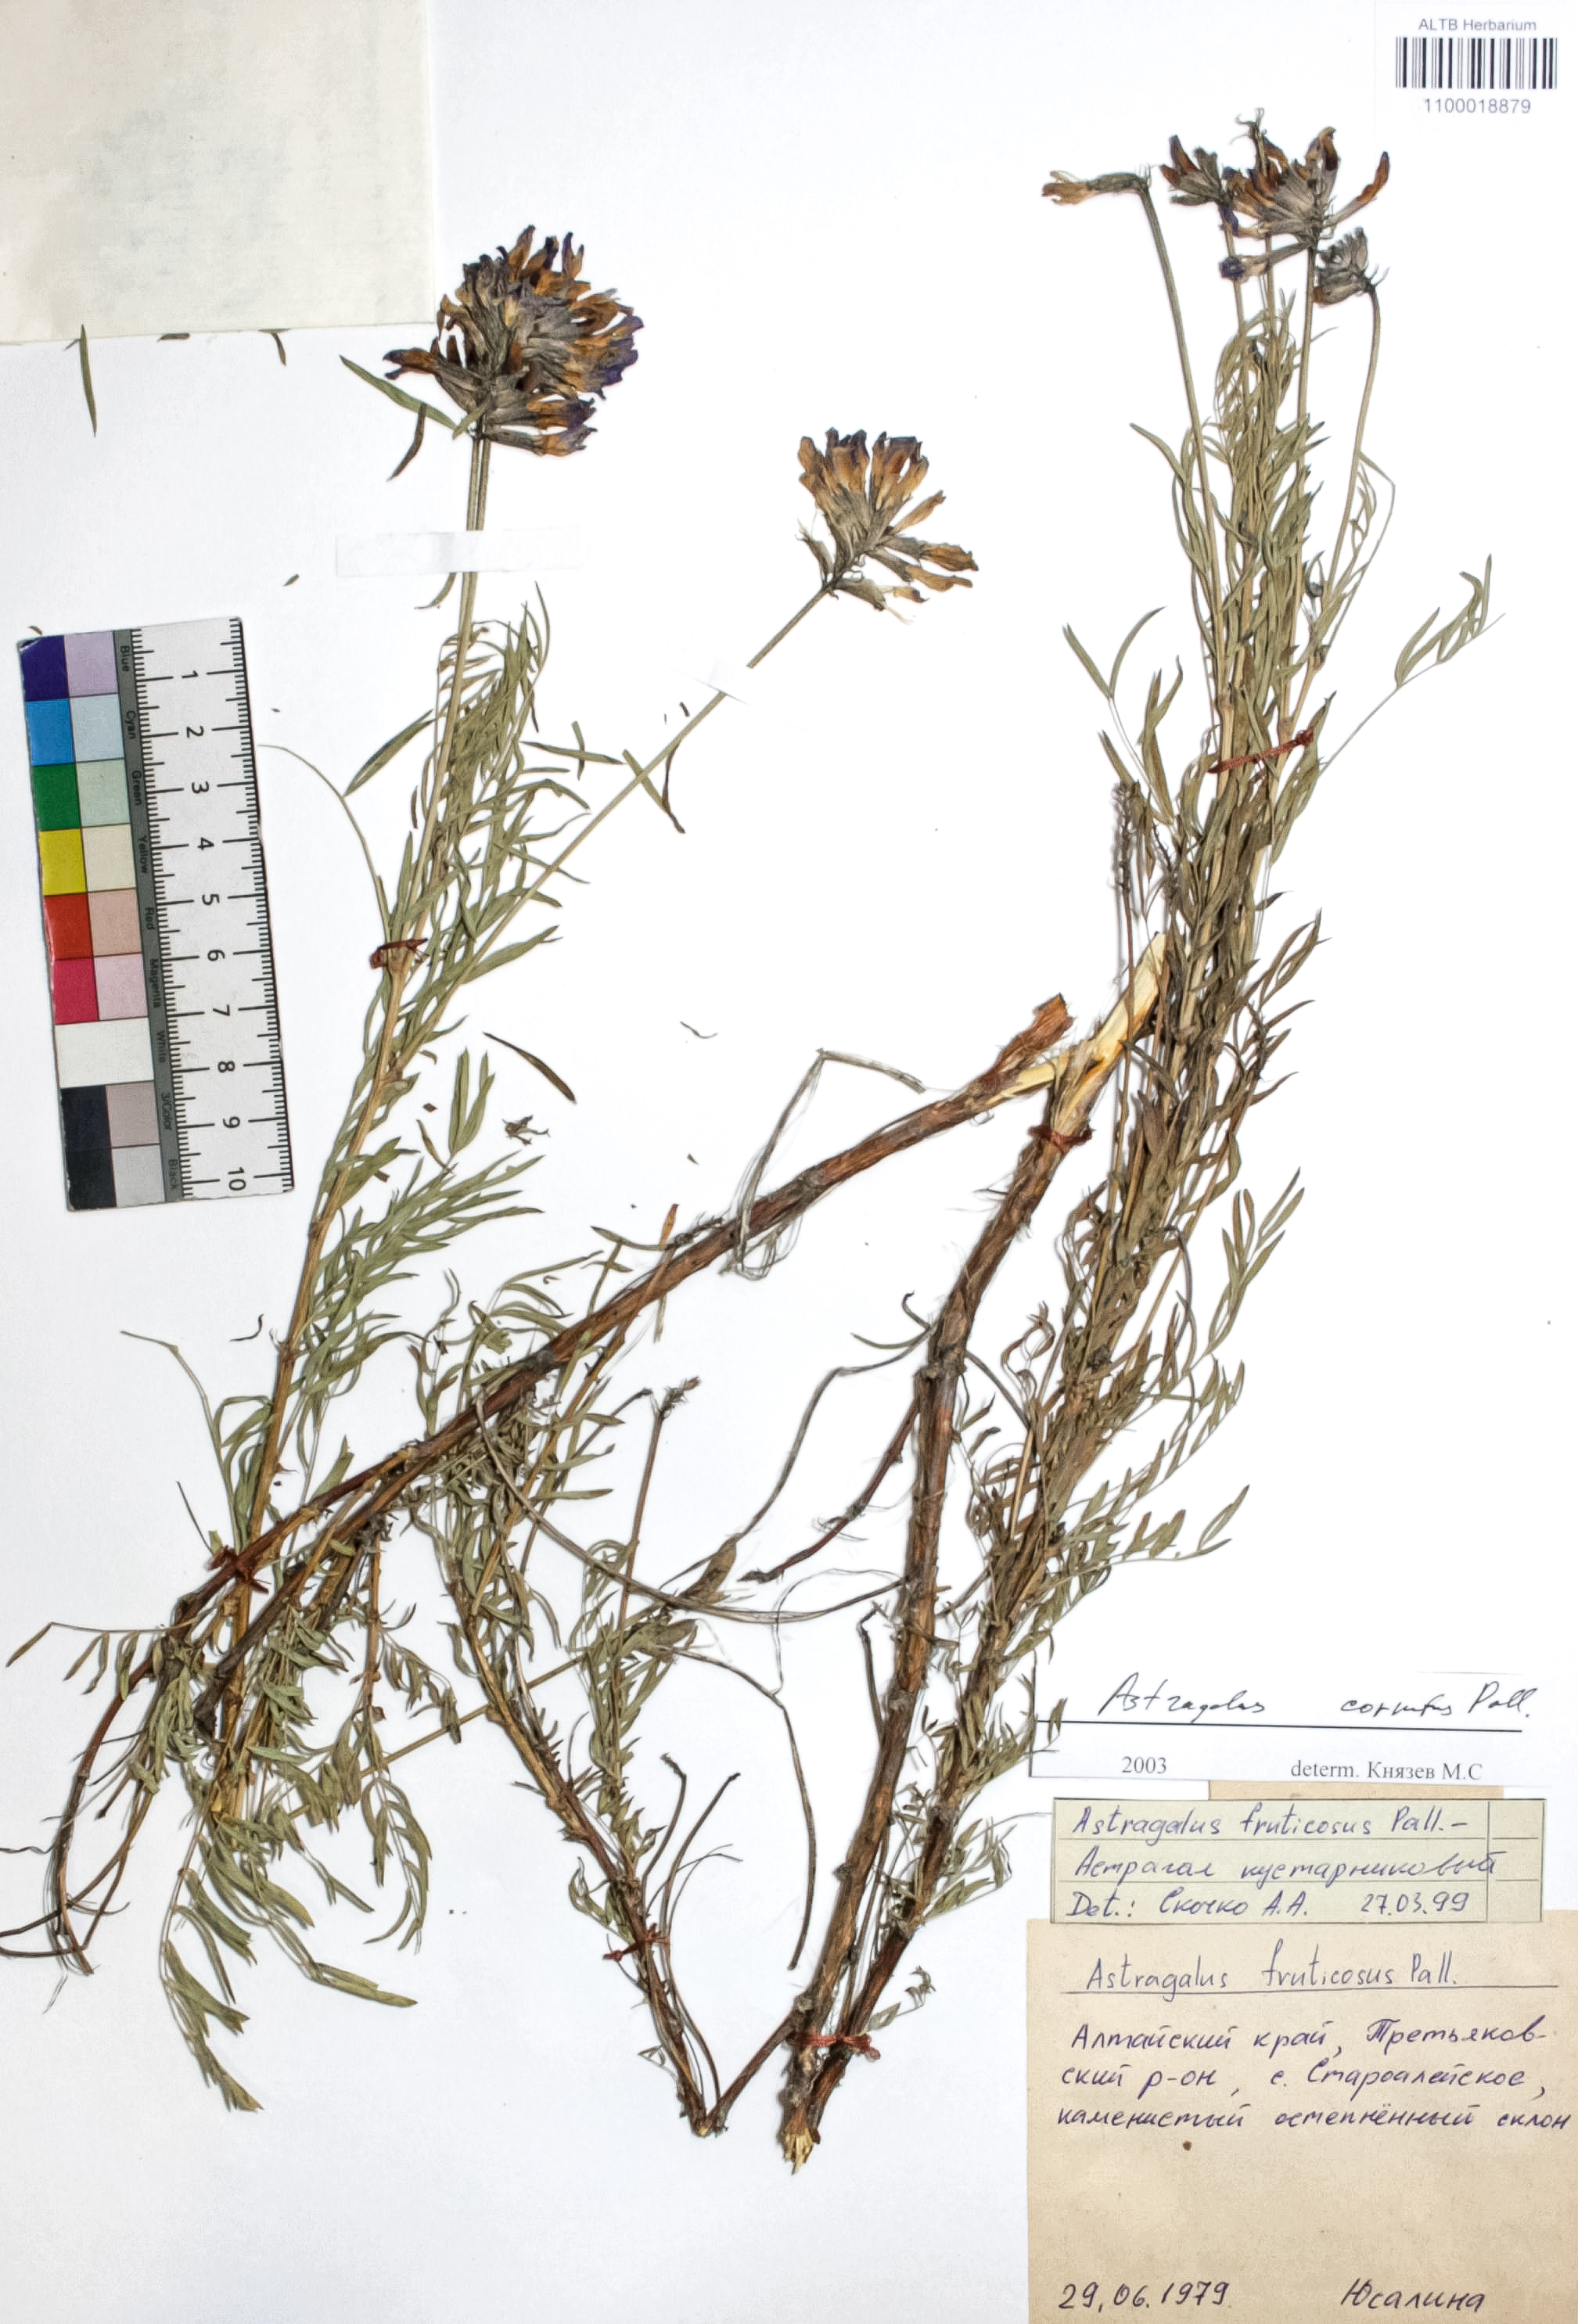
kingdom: Plantae
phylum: Tracheophyta
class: Magnoliopsida
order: Fabales
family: Fabaceae
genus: Astragalus
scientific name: Astragalus cornutus
